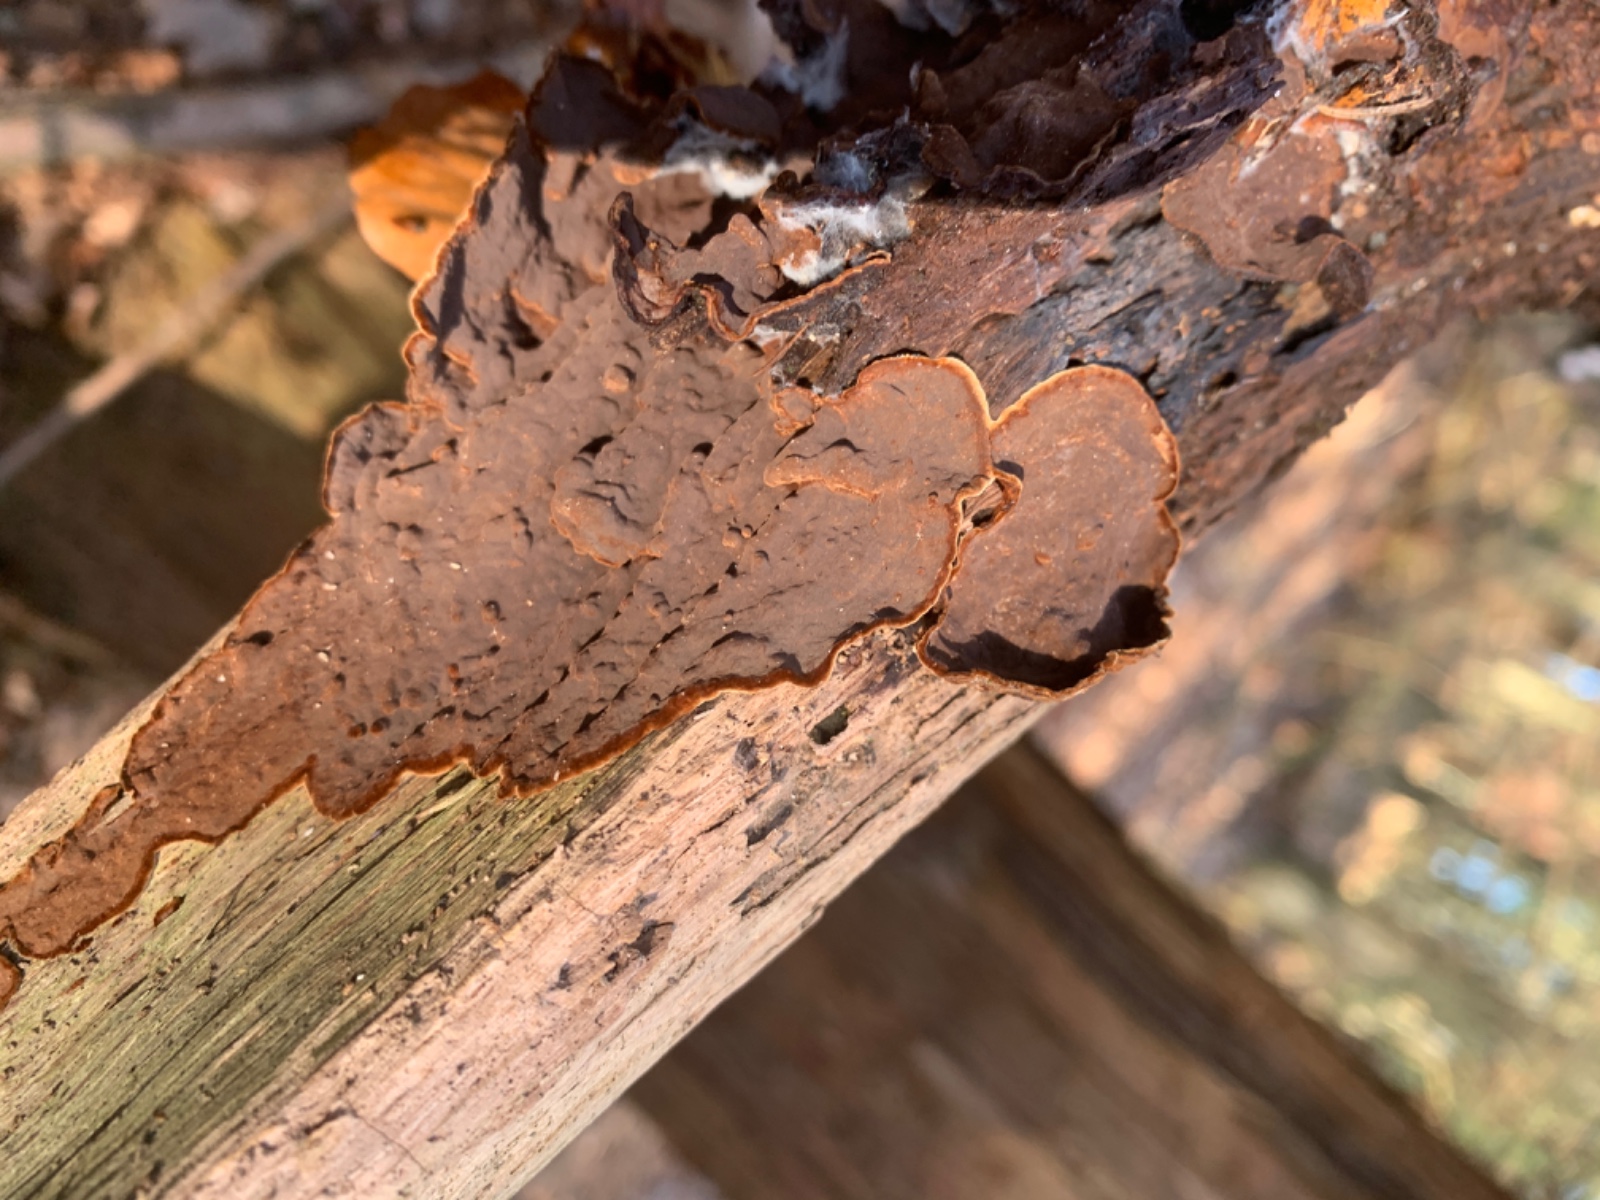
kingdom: Fungi
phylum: Basidiomycota
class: Agaricomycetes
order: Hymenochaetales
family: Hymenochaetaceae
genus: Hymenochaete
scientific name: Hymenochaete rubiginosa
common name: stiv ruslædersvamp
